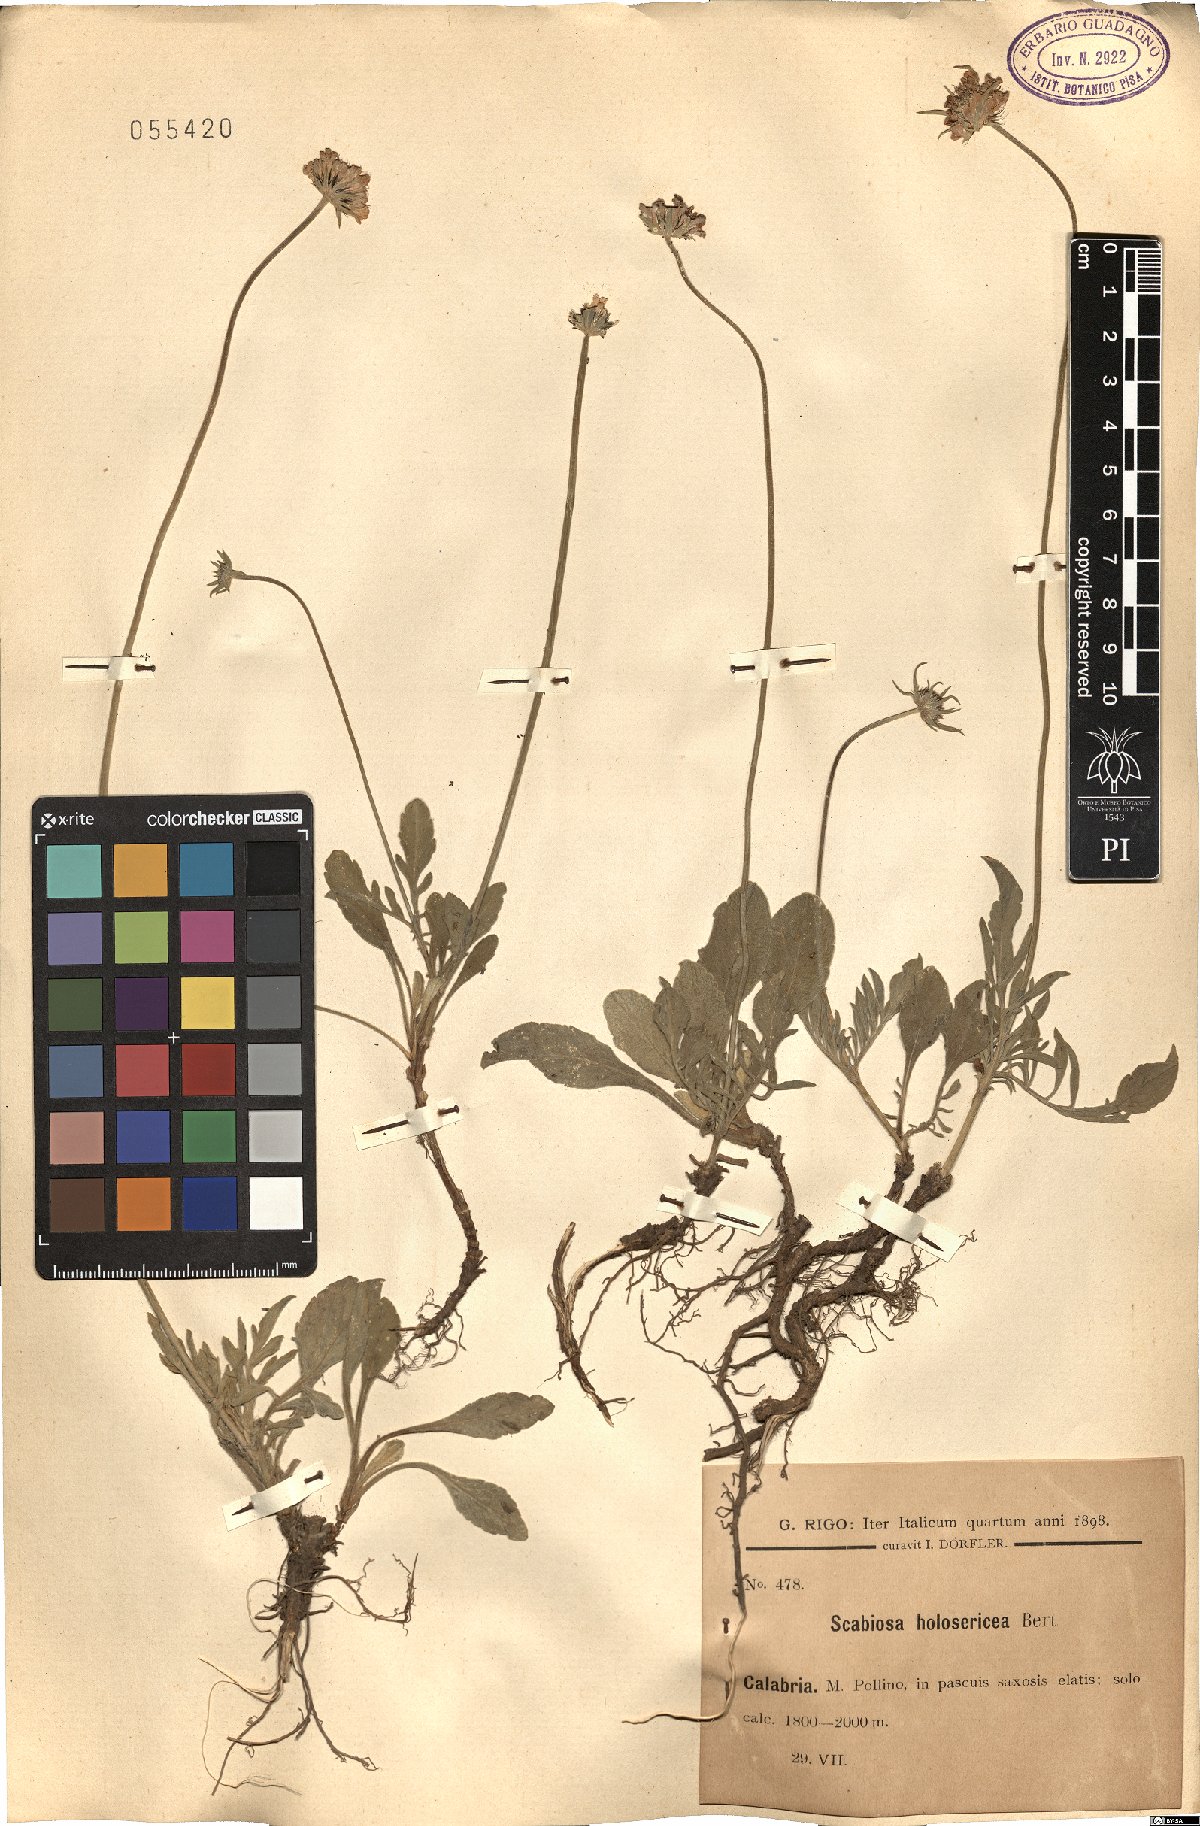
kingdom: Plantae
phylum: Tracheophyta
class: Magnoliopsida
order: Dipsacales
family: Caprifoliaceae
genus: Scabiosa
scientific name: Scabiosa holosericea
